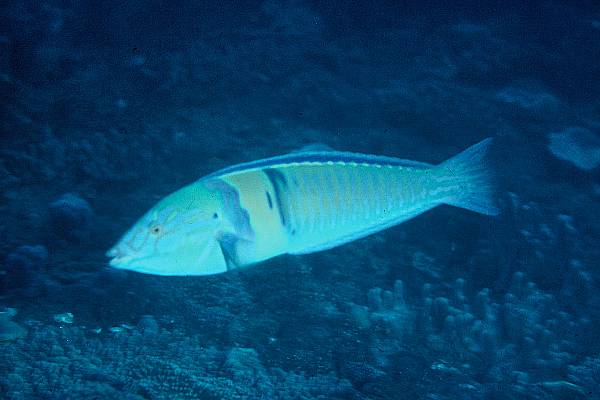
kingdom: Animalia
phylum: Chordata
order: Perciformes
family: Labridae
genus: Hologymnosus
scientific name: Hologymnosus doliatus
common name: Pastel ringwrasse
